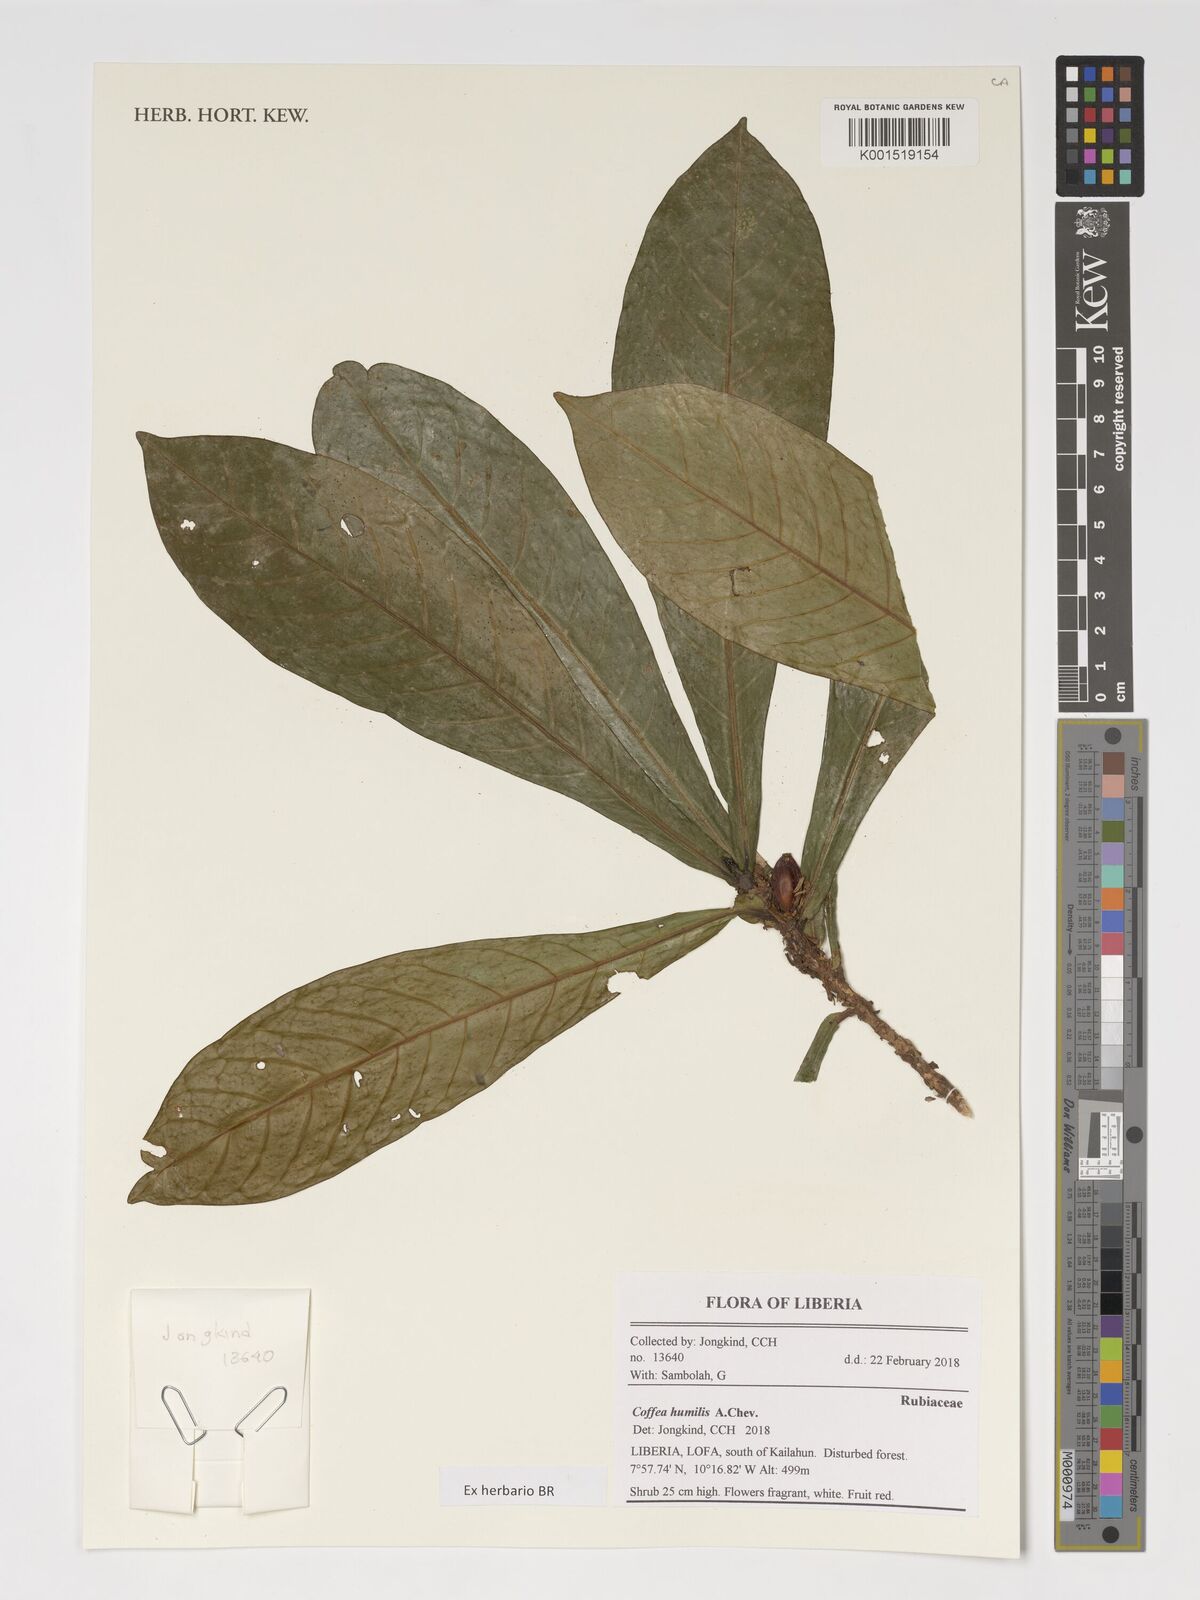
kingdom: Plantae
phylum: Tracheophyta
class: Magnoliopsida
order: Gentianales
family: Rubiaceae
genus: Coffea
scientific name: Coffea humilis
